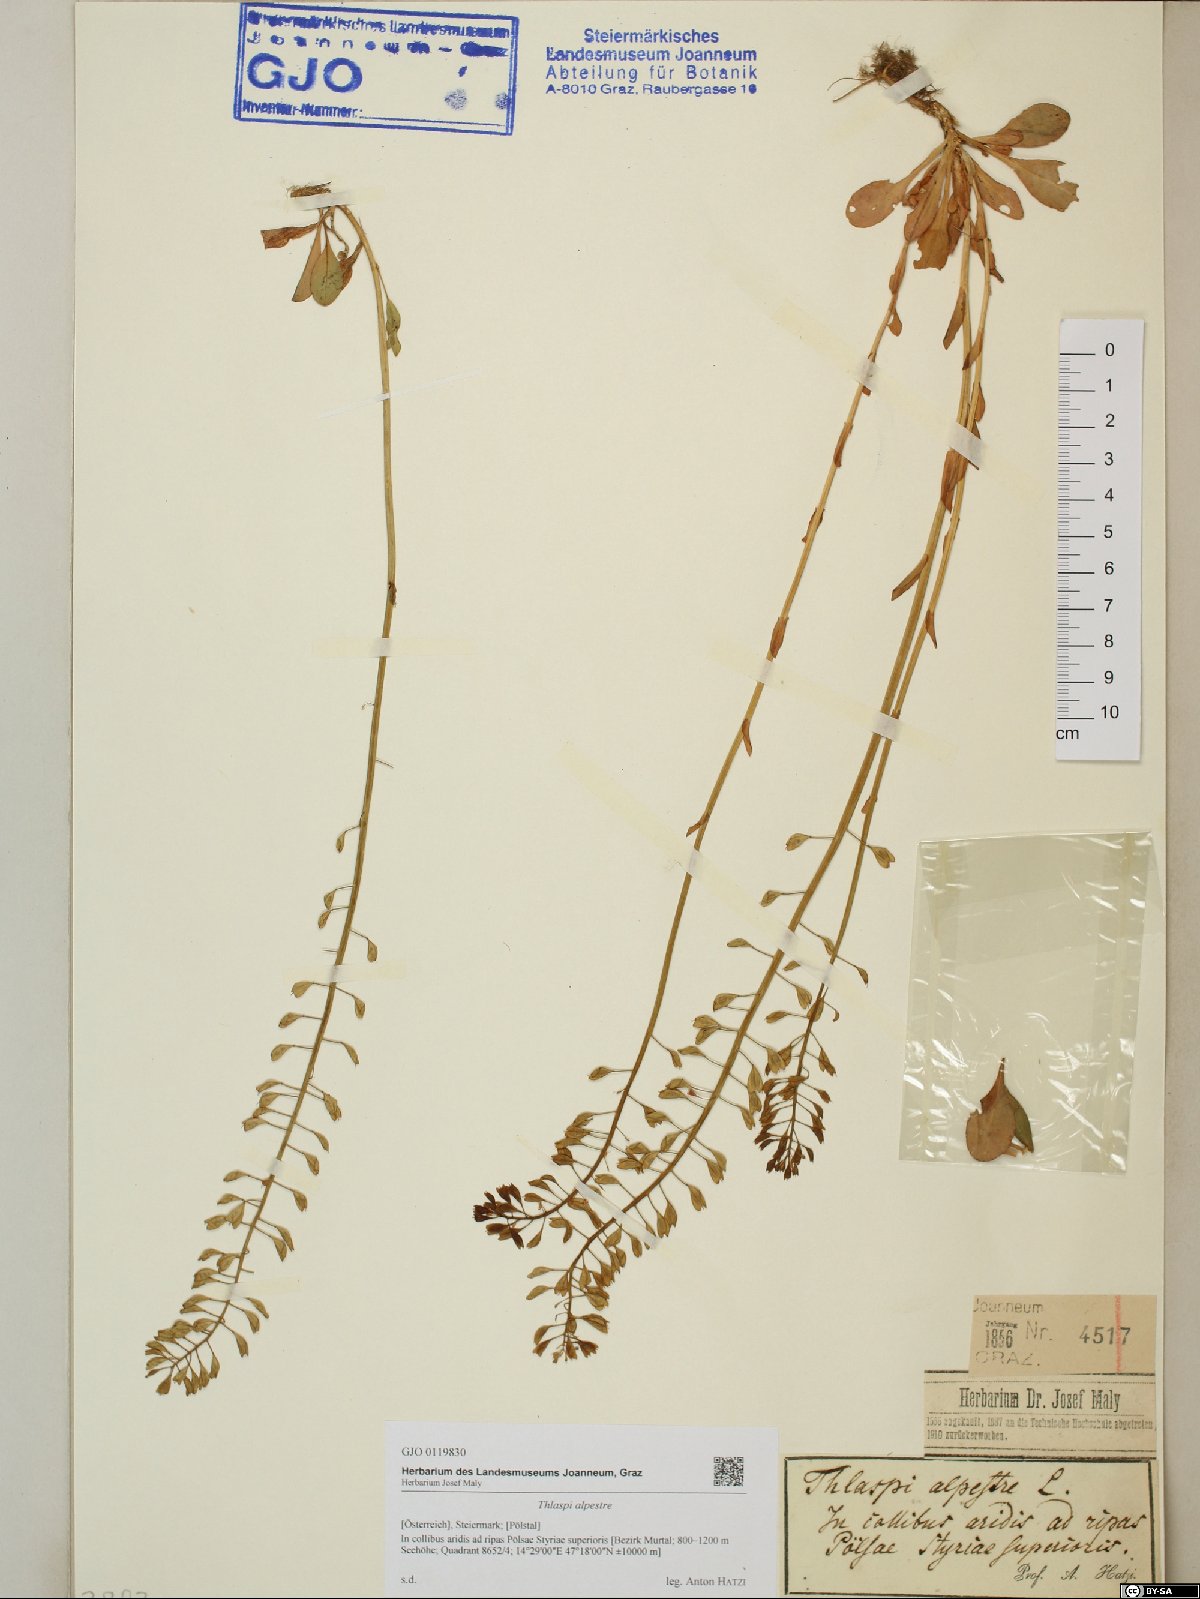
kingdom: Plantae
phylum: Tracheophyta
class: Magnoliopsida
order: Brassicales
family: Brassicaceae
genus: Noccaea
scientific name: Noccaea caerulescens
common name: Alpine pennycress
